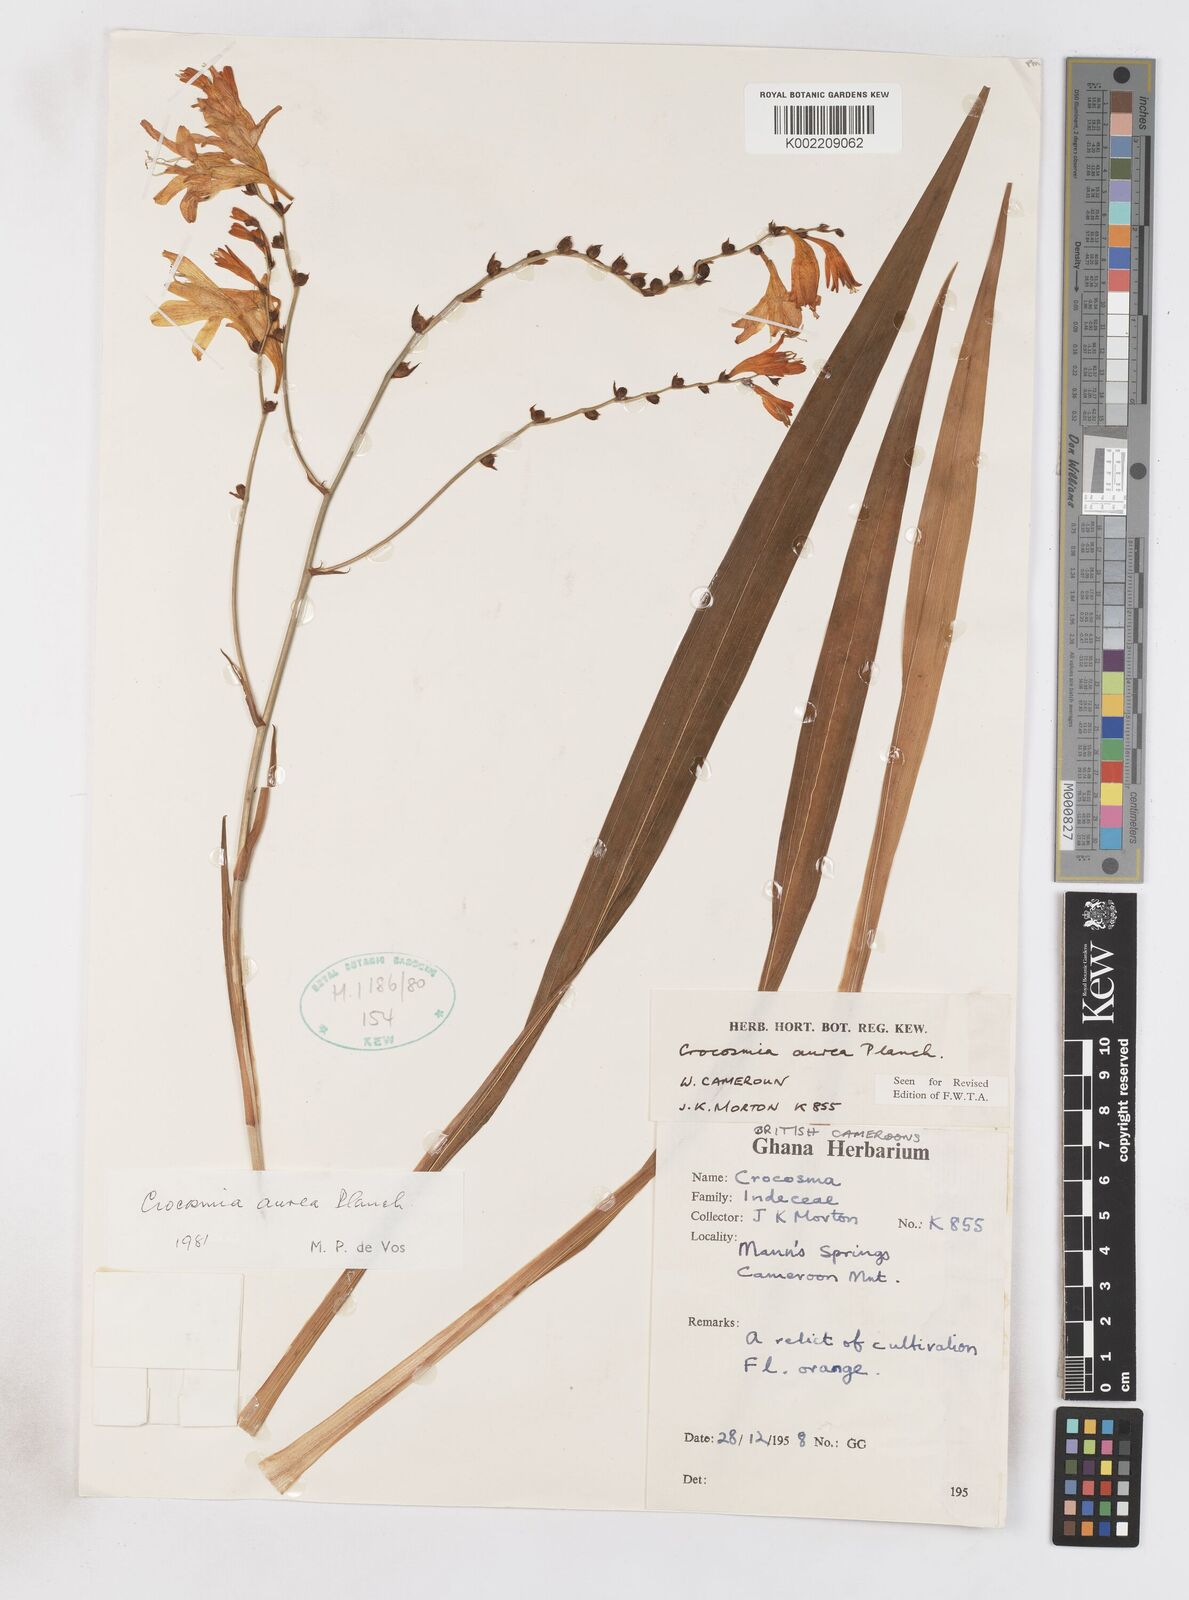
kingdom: Plantae
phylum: Tracheophyta
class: Liliopsida
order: Asparagales
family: Iridaceae
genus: Crocosmia
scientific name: Crocosmia aurea
